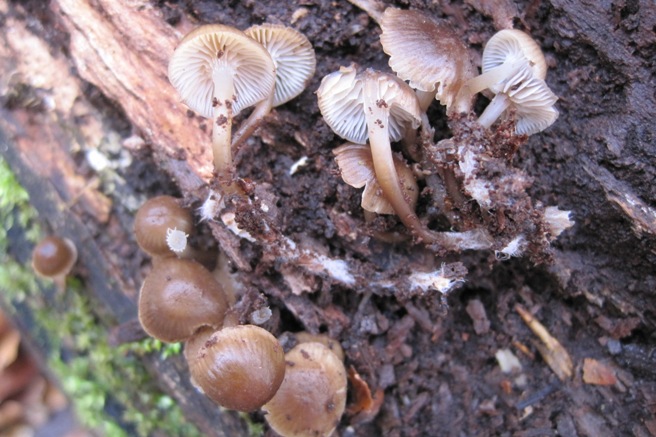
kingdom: Fungi
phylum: Basidiomycota
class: Agaricomycetes
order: Agaricales
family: Mycenaceae
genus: Mycena
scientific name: Mycena tintinnabulum
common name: vinter-huesvamp
